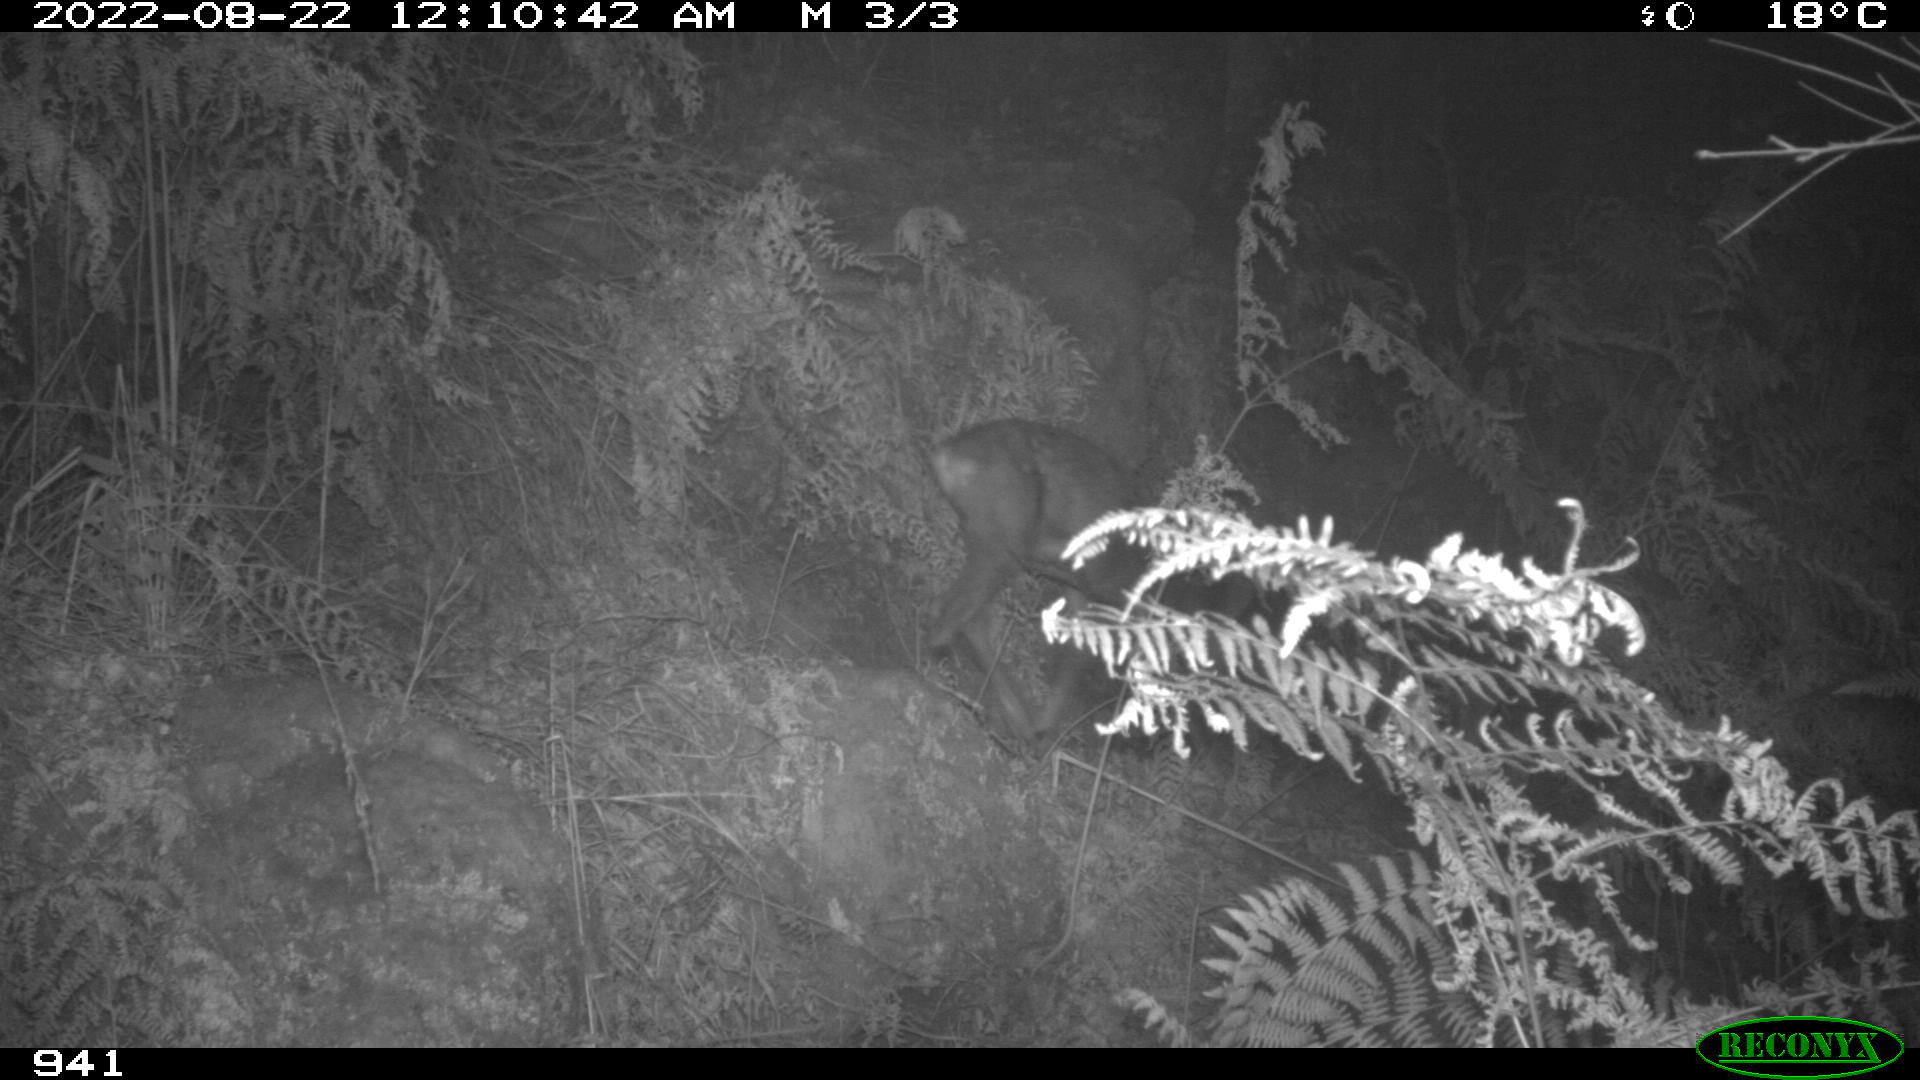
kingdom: Animalia
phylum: Chordata
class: Mammalia
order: Artiodactyla
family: Cervidae
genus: Capreolus
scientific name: Capreolus capreolus
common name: Western roe deer
